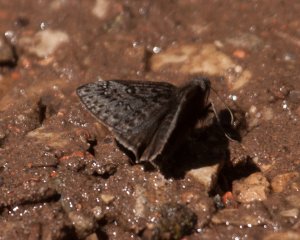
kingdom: Animalia
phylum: Arthropoda
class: Insecta
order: Lepidoptera
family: Hesperiidae
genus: Gesta
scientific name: Gesta
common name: Persius Duskywing
